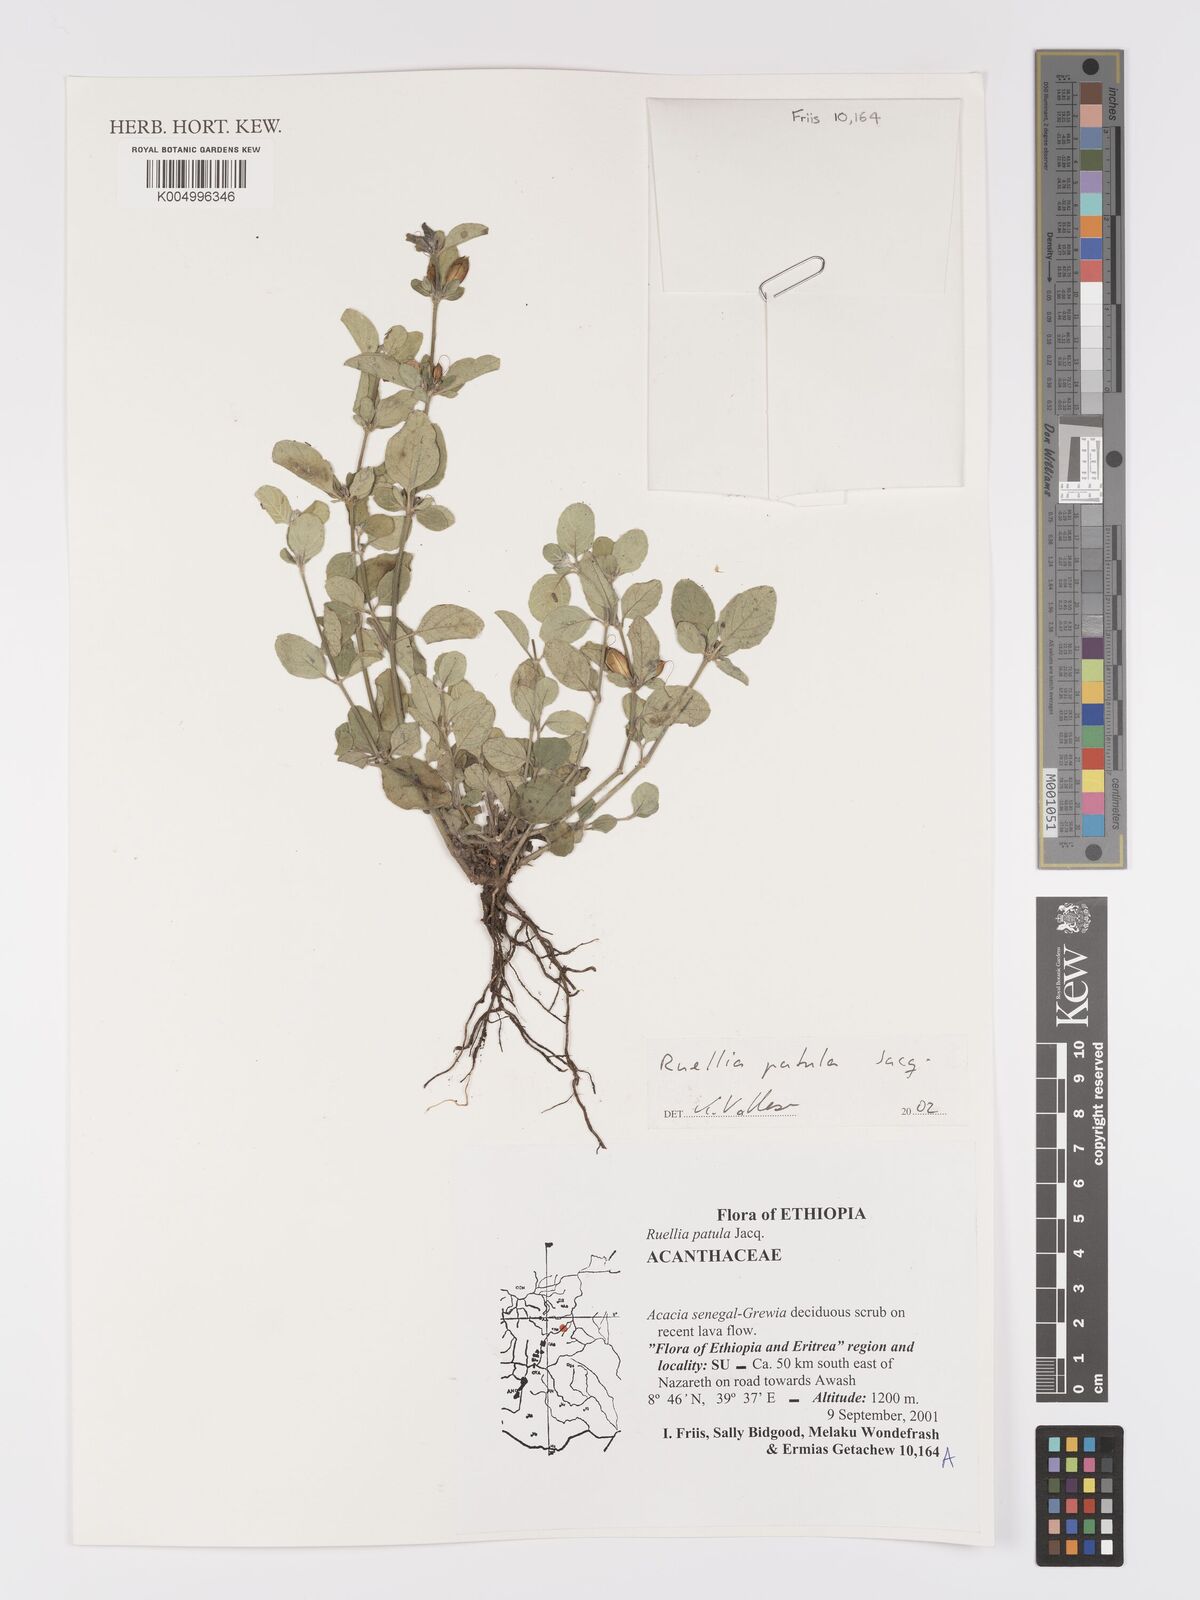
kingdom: Plantae
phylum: Tracheophyta
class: Magnoliopsida
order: Lamiales
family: Acanthaceae
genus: Ruellia
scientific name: Ruellia patula
